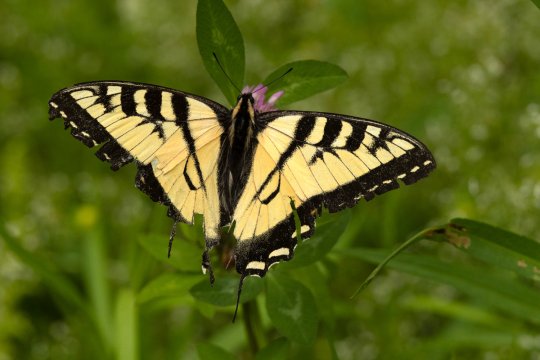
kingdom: Animalia
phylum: Arthropoda
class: Insecta
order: Lepidoptera
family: Papilionidae
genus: Pterourus
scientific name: Pterourus canadensis
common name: Canadian Tiger Swallowtail
